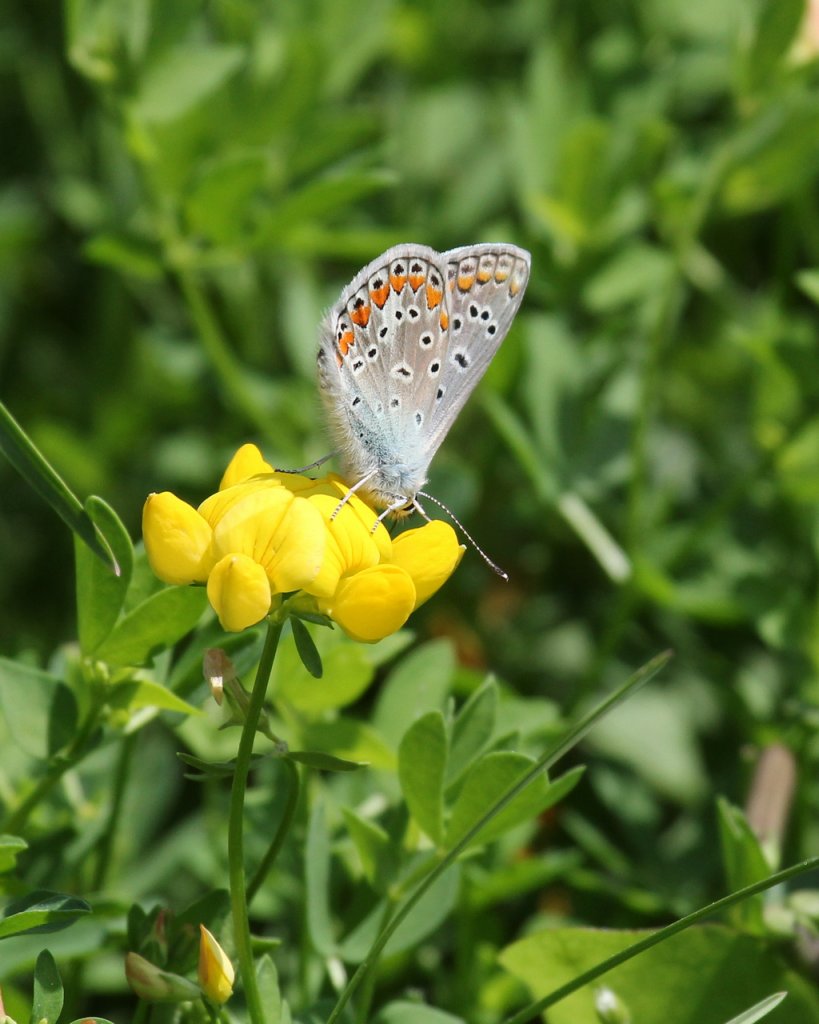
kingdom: Animalia
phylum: Arthropoda
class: Insecta
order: Lepidoptera
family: Lycaenidae
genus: Polyommatus
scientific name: Polyommatus icarus
